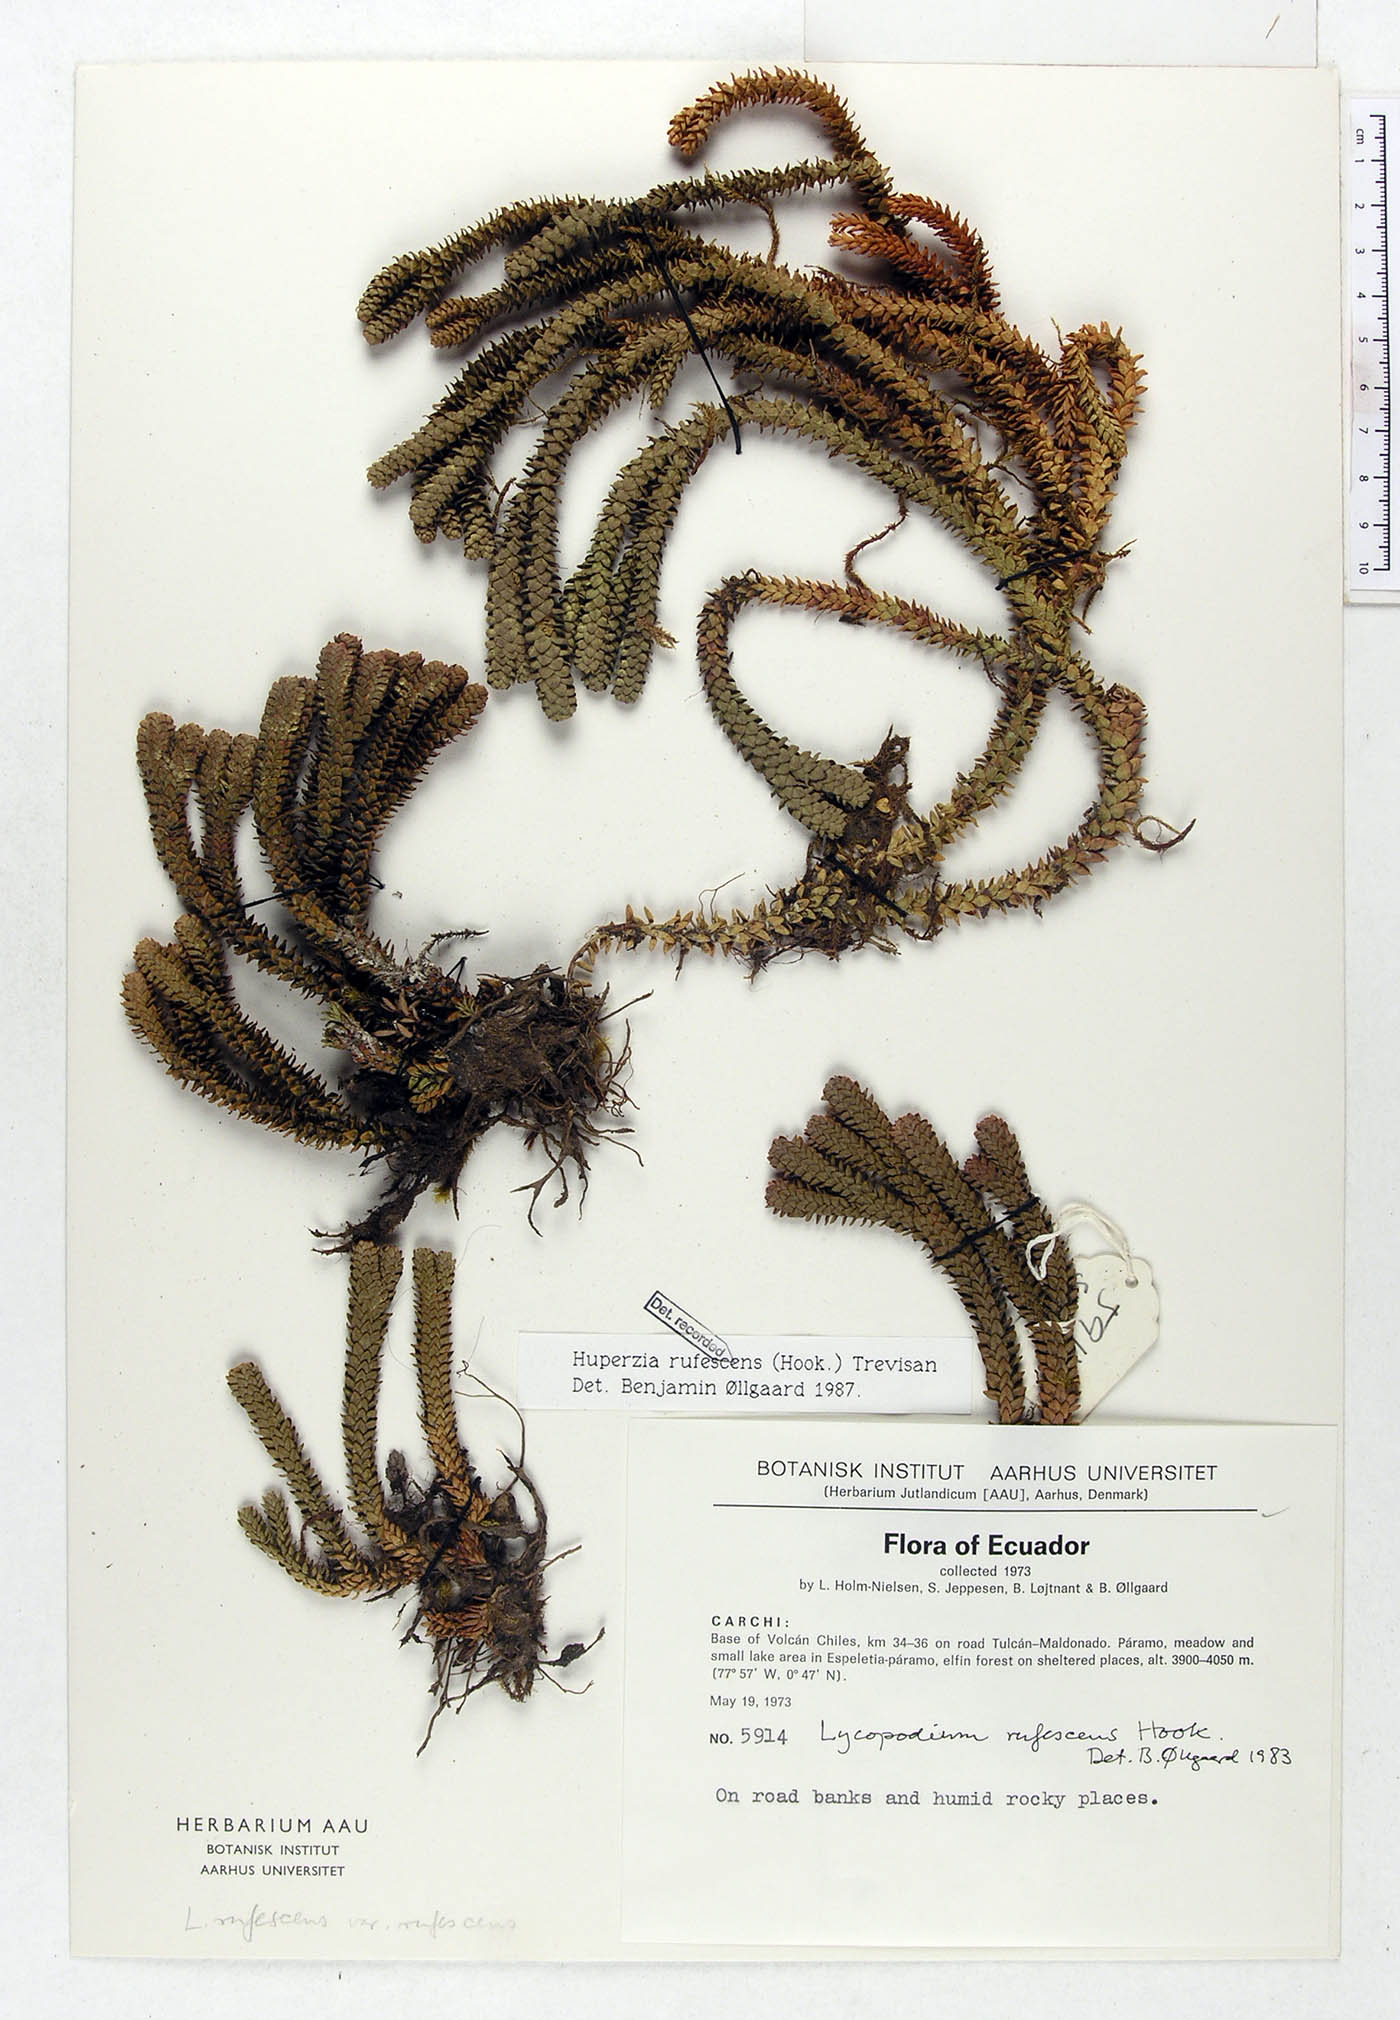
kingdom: Plantae
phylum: Tracheophyta
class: Lycopodiopsida
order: Lycopodiales
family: Lycopodiaceae
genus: Phlegmariurus
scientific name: Phlegmariurus rufescens
